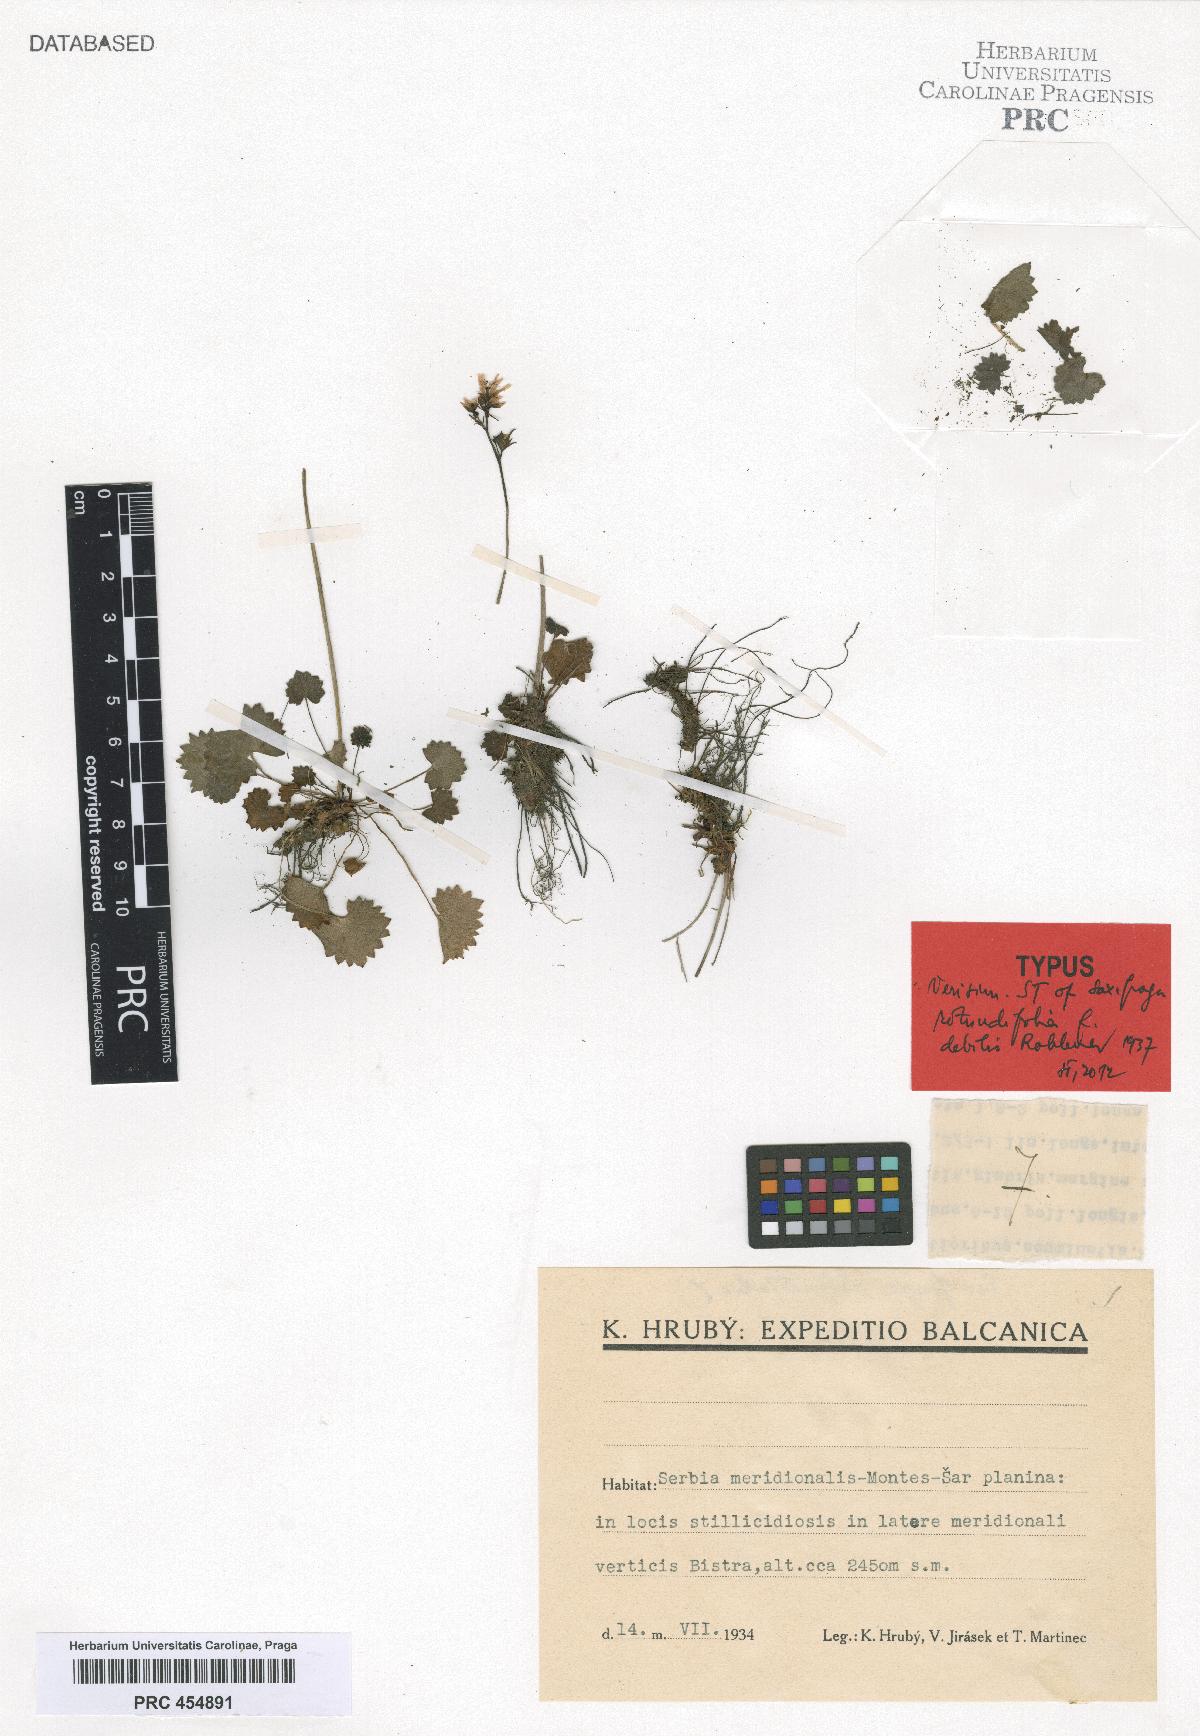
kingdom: Plantae
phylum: Tracheophyta
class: Magnoliopsida
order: Saxifragales
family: Saxifragaceae
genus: Saxifraga
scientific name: Saxifraga rotundifolia
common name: Round-leaved saxifrage
